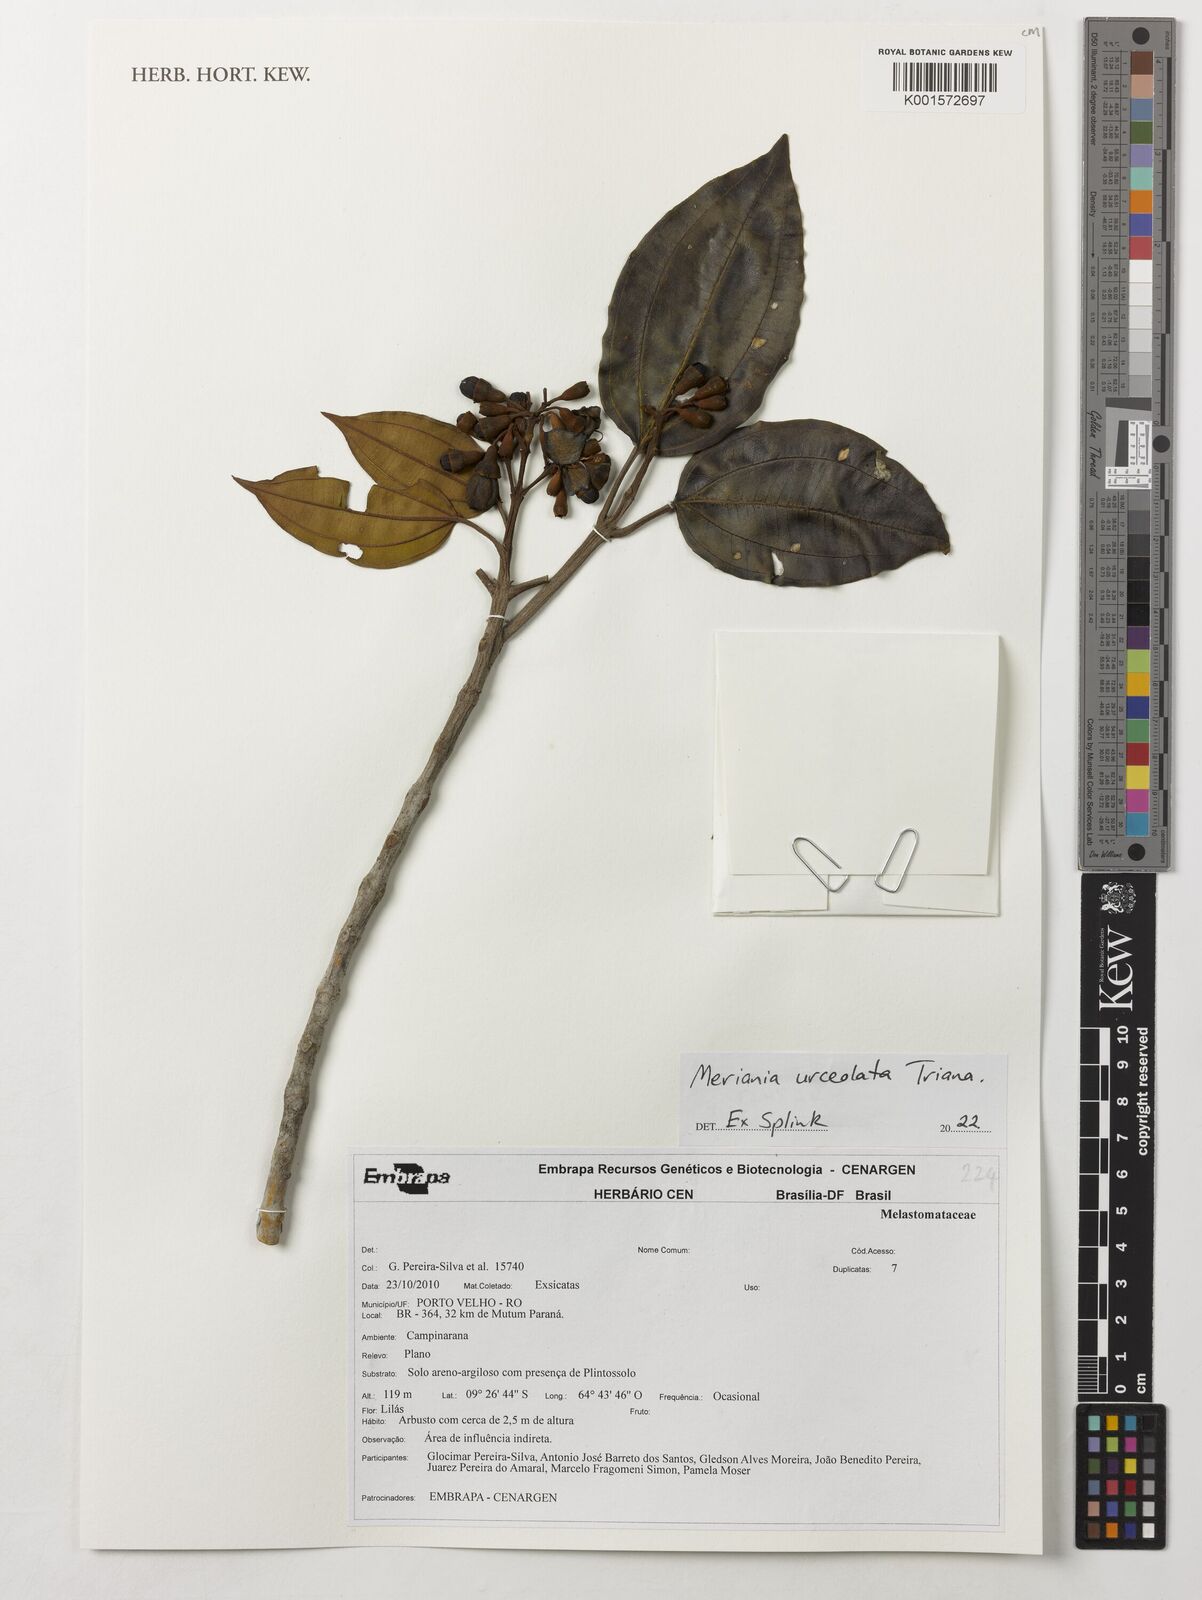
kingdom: Plantae
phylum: Tracheophyta
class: Magnoliopsida
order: Myrtales
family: Melastomataceae
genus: Meriania
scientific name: Meriania urceolata
